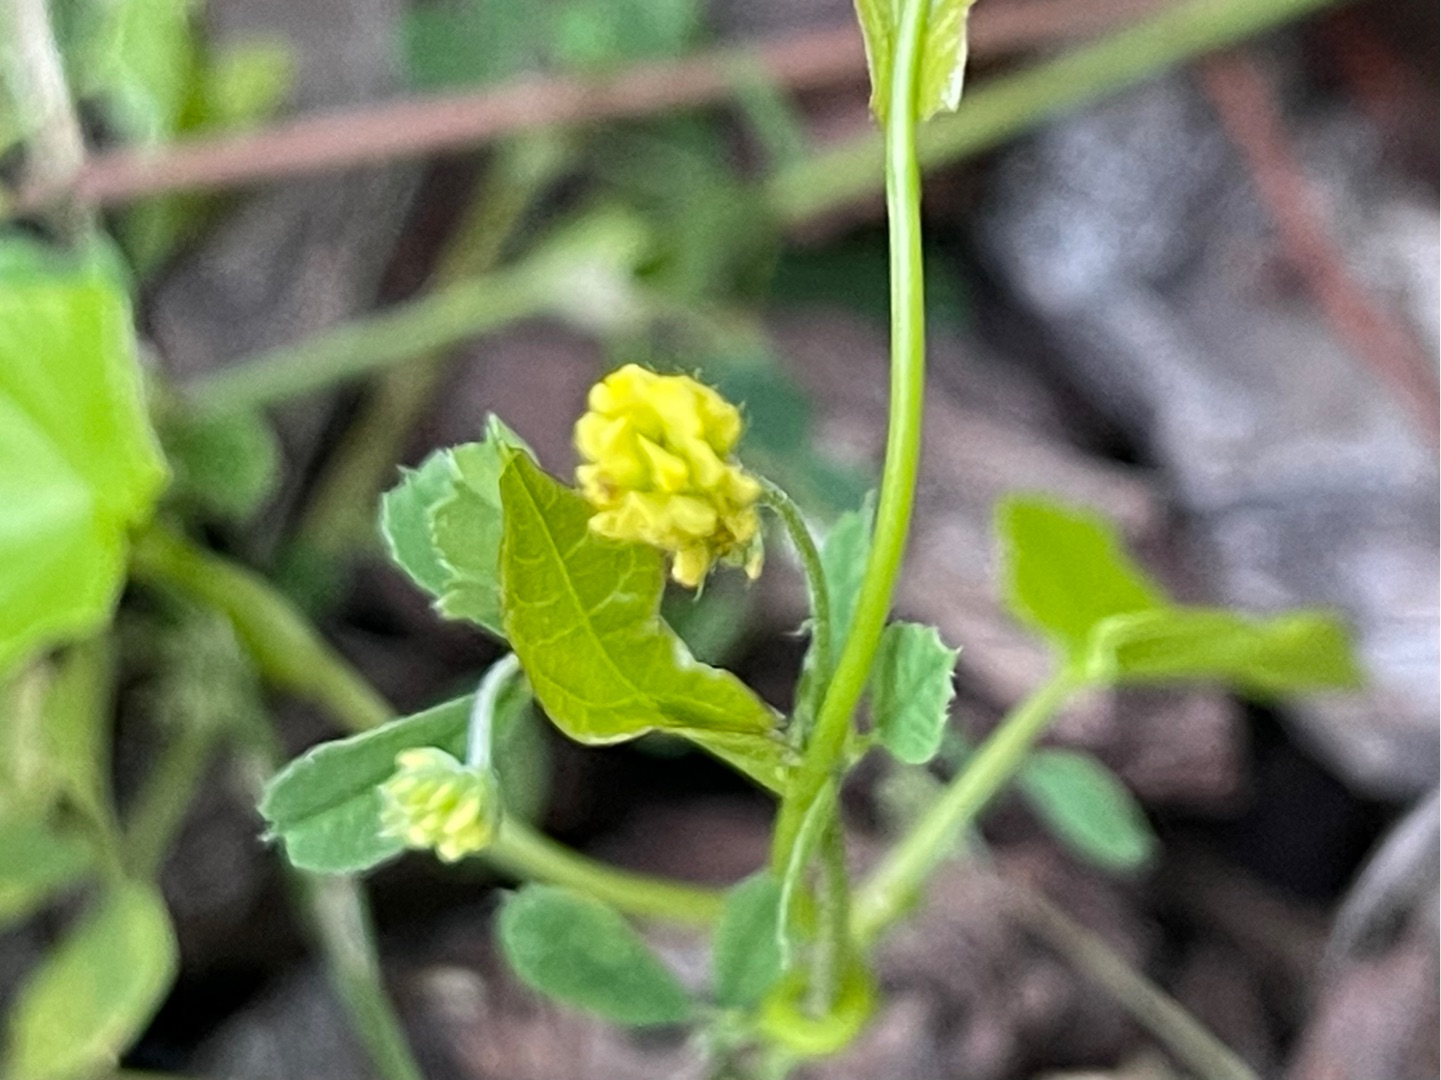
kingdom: Plantae
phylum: Tracheophyta
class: Magnoliopsida
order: Fabales
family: Fabaceae
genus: Medicago
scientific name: Medicago lupulina
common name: Humle-sneglebælg
